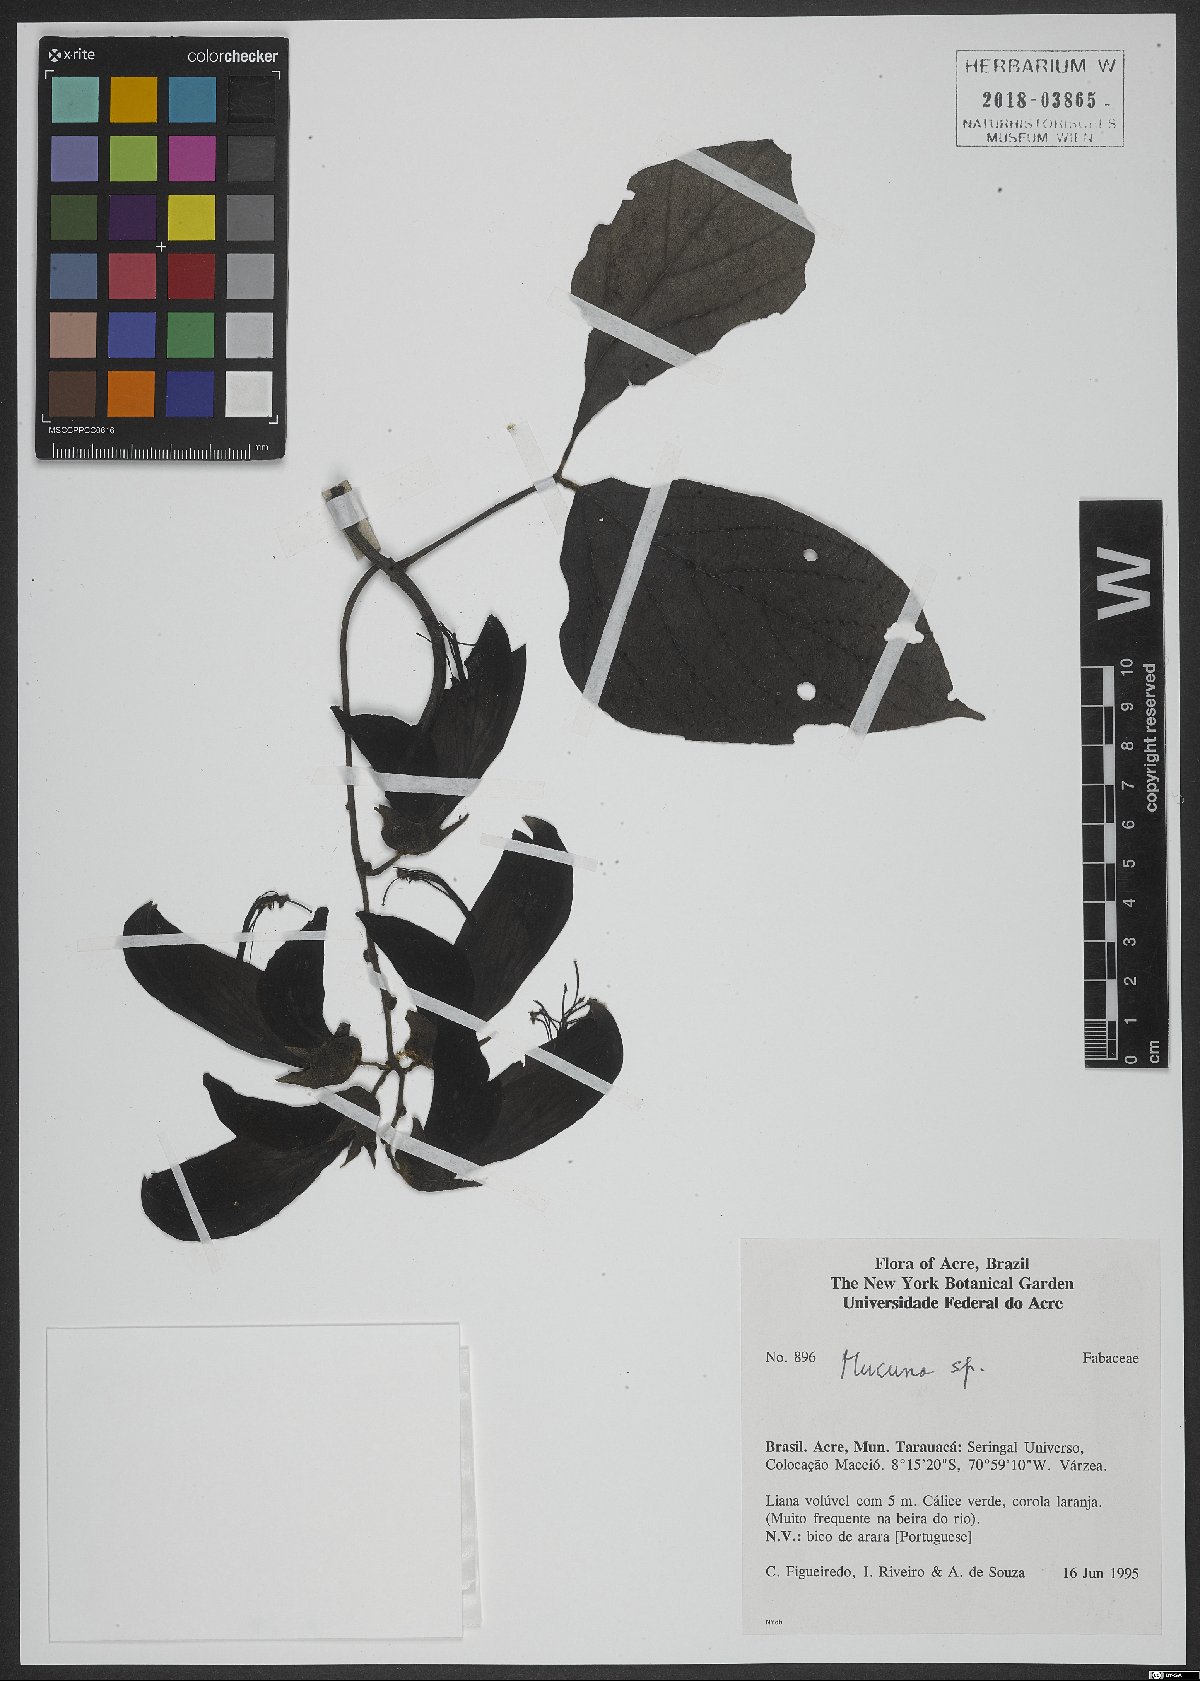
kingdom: Plantae
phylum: Tracheophyta
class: Magnoliopsida
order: Fabales
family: Fabaceae
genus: Mucuna
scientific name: Mucuna
